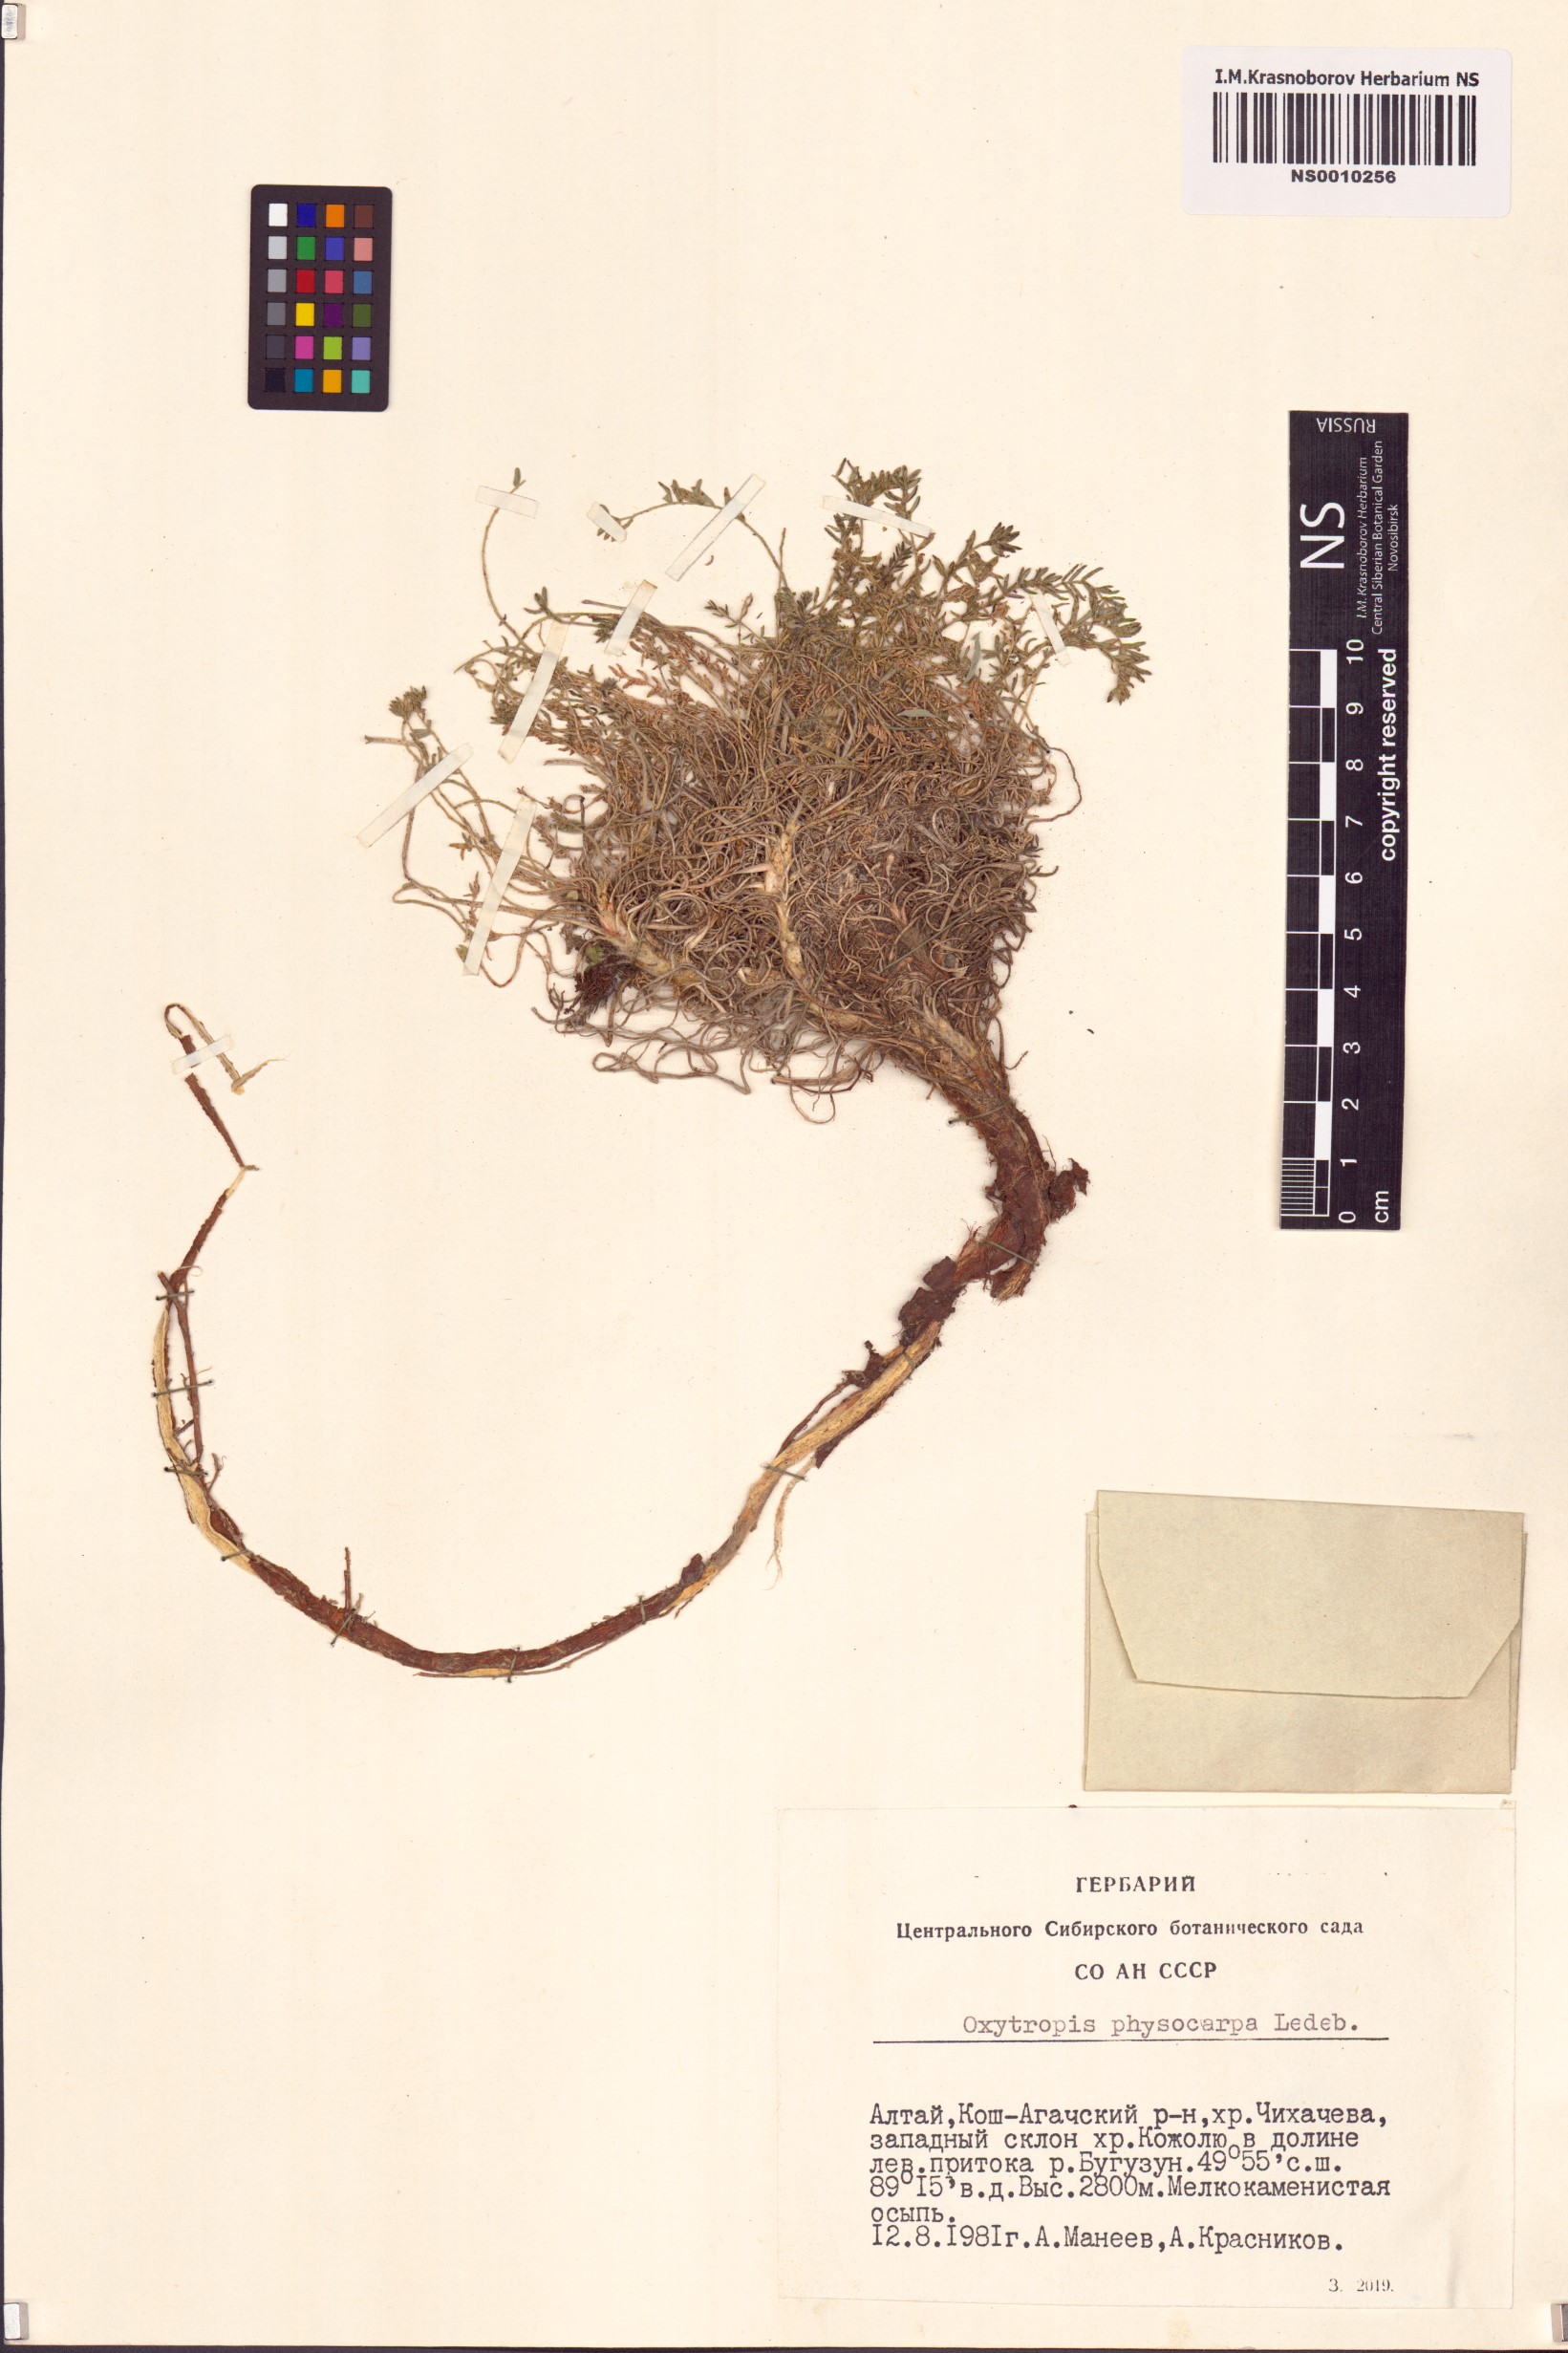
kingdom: Plantae
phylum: Tracheophyta
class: Magnoliopsida
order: Fabales
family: Fabaceae
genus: Oxytropis
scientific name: Oxytropis physocarpa
